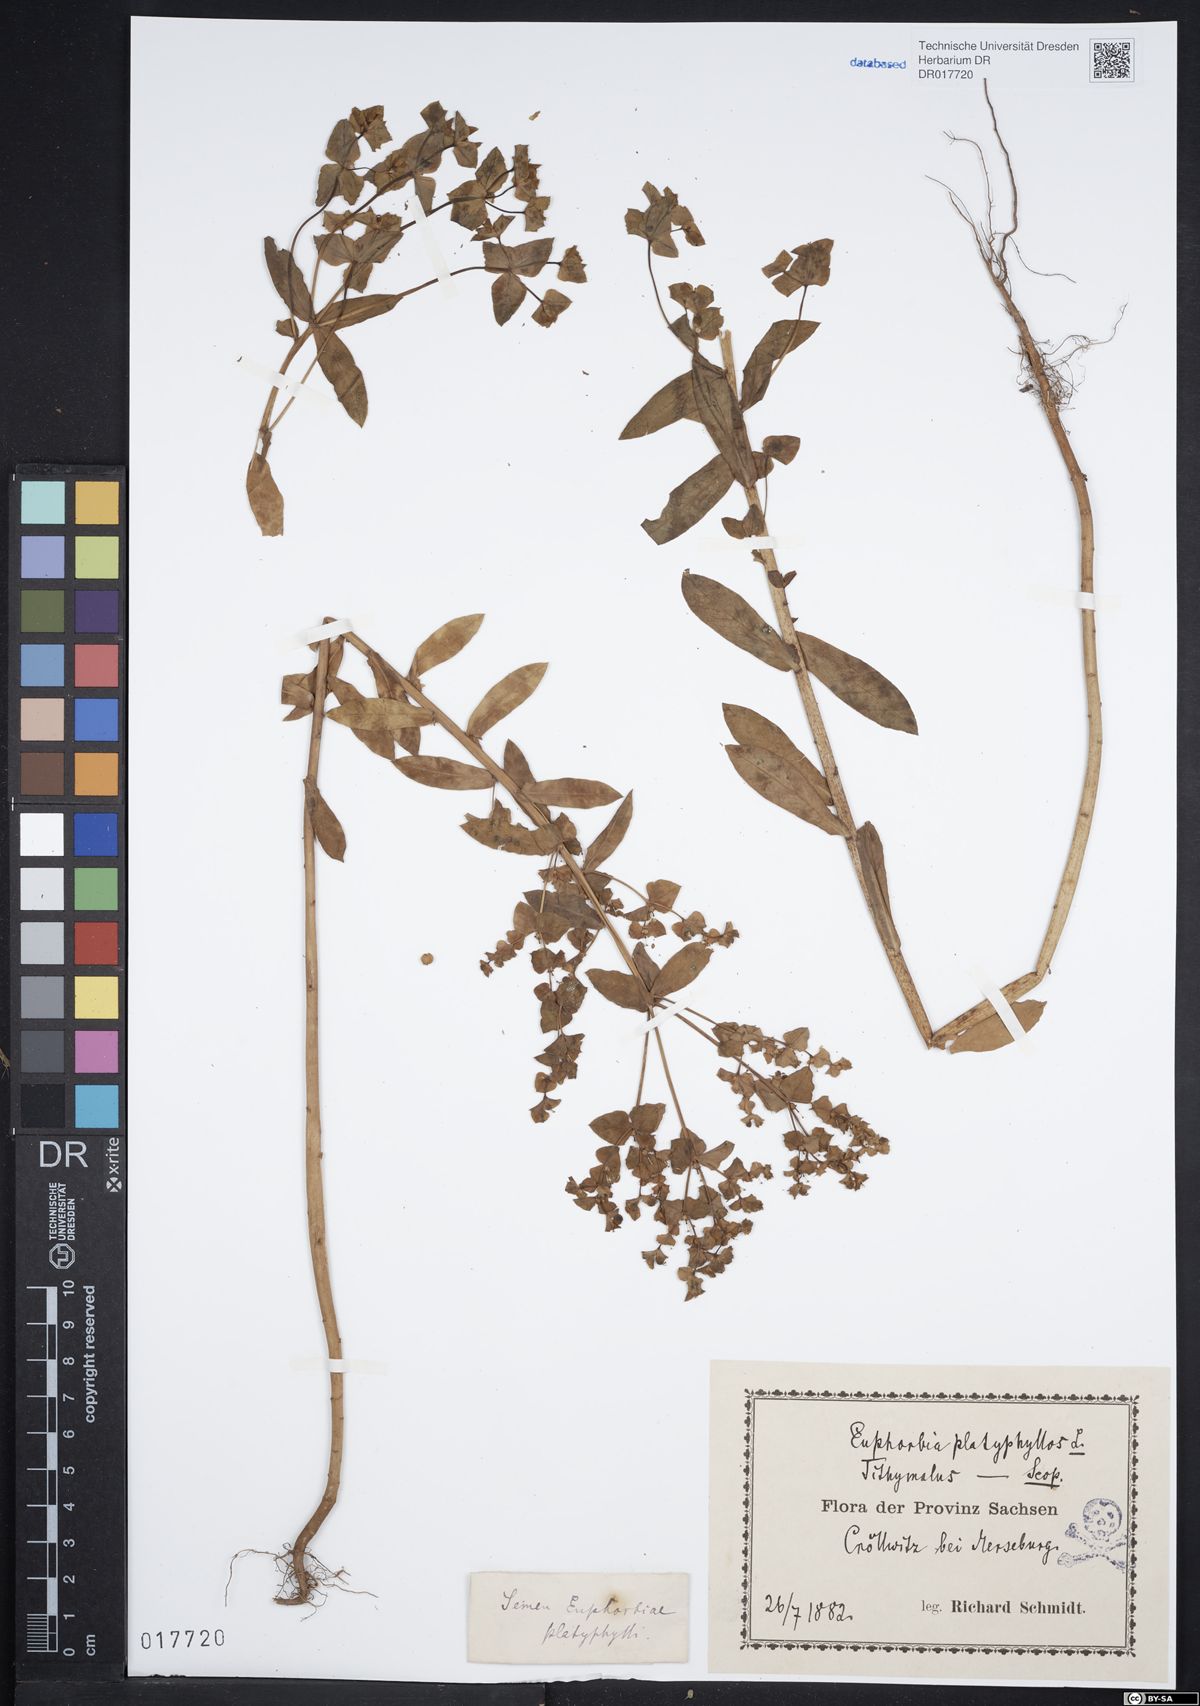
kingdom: Plantae
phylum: Tracheophyta
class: Magnoliopsida
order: Malpighiales
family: Euphorbiaceae
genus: Euphorbia
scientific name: Euphorbia platyphyllos
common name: Broad-leaved spurge
